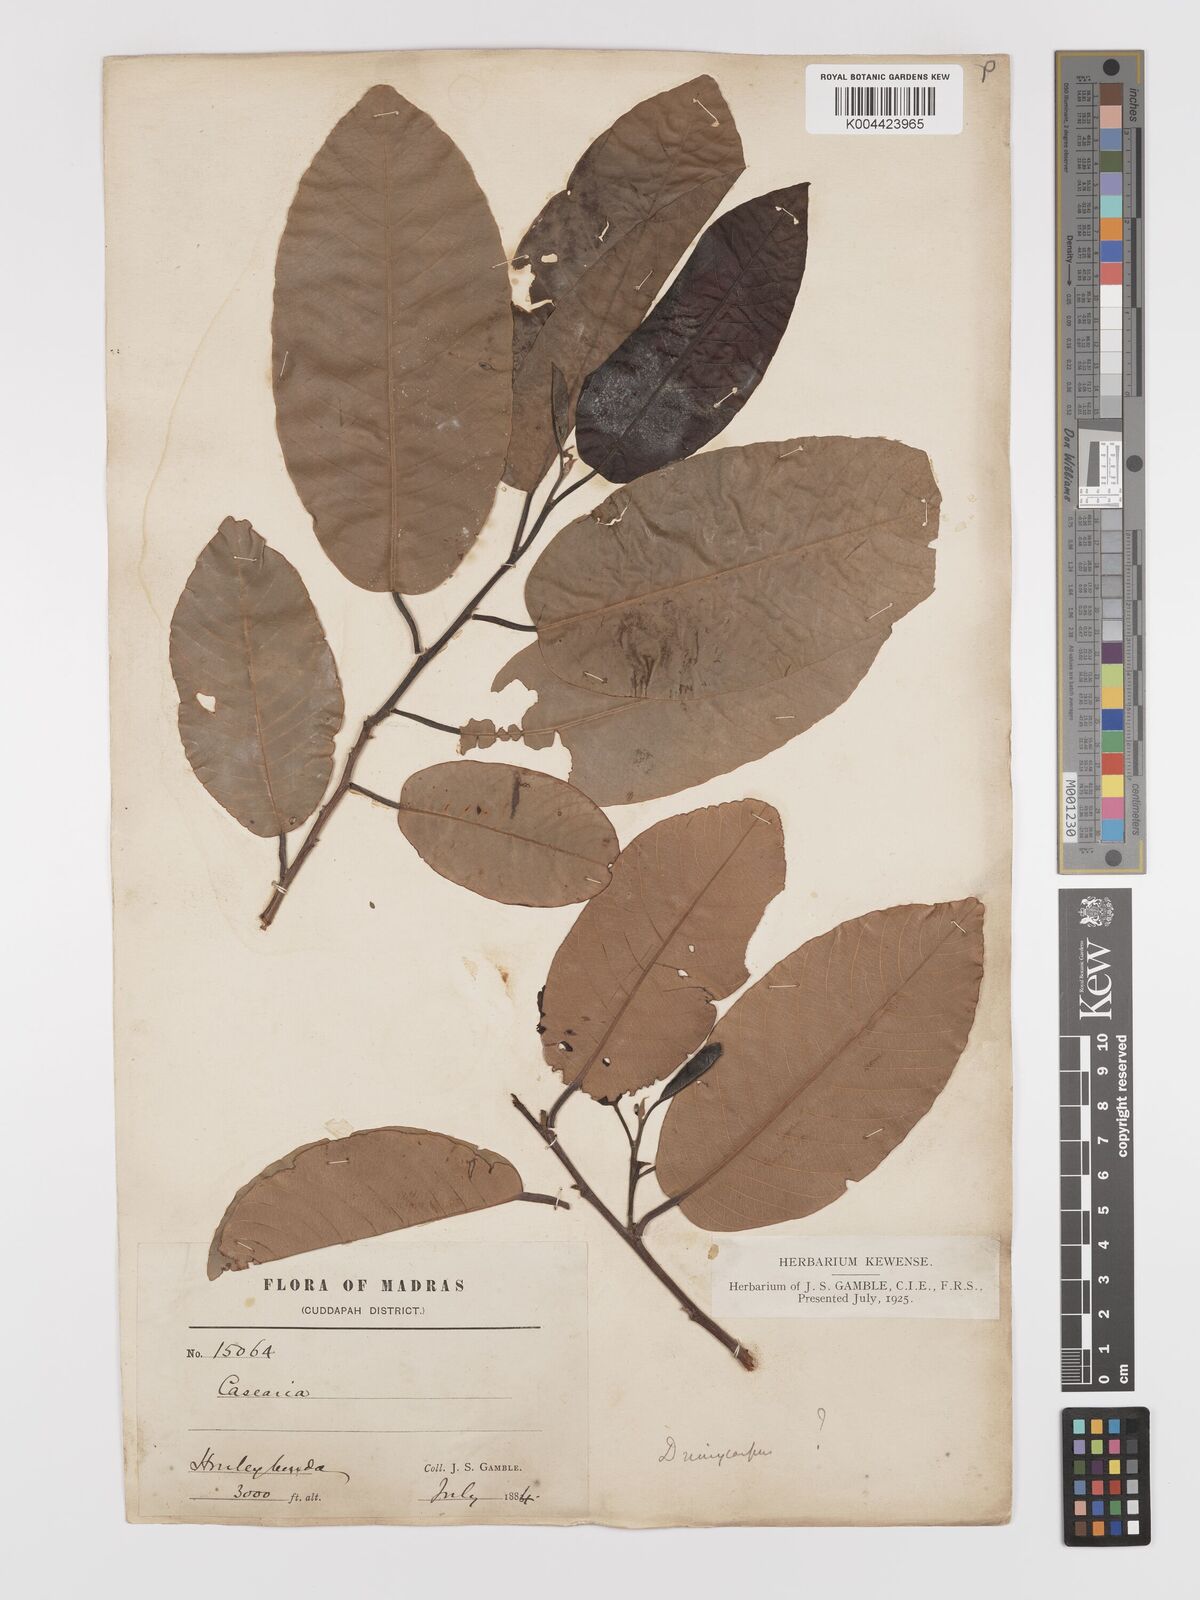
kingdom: Plantae
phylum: Tracheophyta
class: Magnoliopsida
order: Celastrales
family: Celastraceae
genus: Lophopetalum
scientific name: Lophopetalum wightianum
